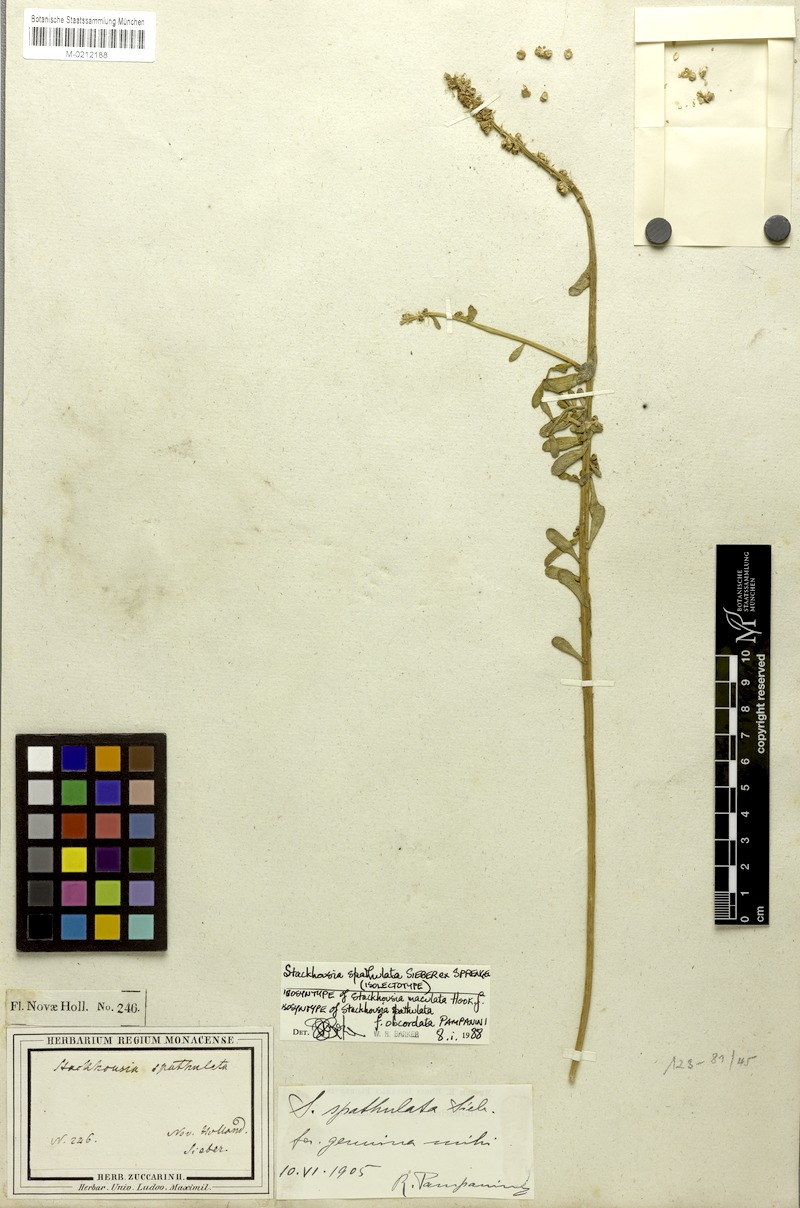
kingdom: Plantae
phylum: Tracheophyta
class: Magnoliopsida
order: Celastrales
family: Celastraceae
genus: Stackhousia
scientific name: Stackhousia spathulata
